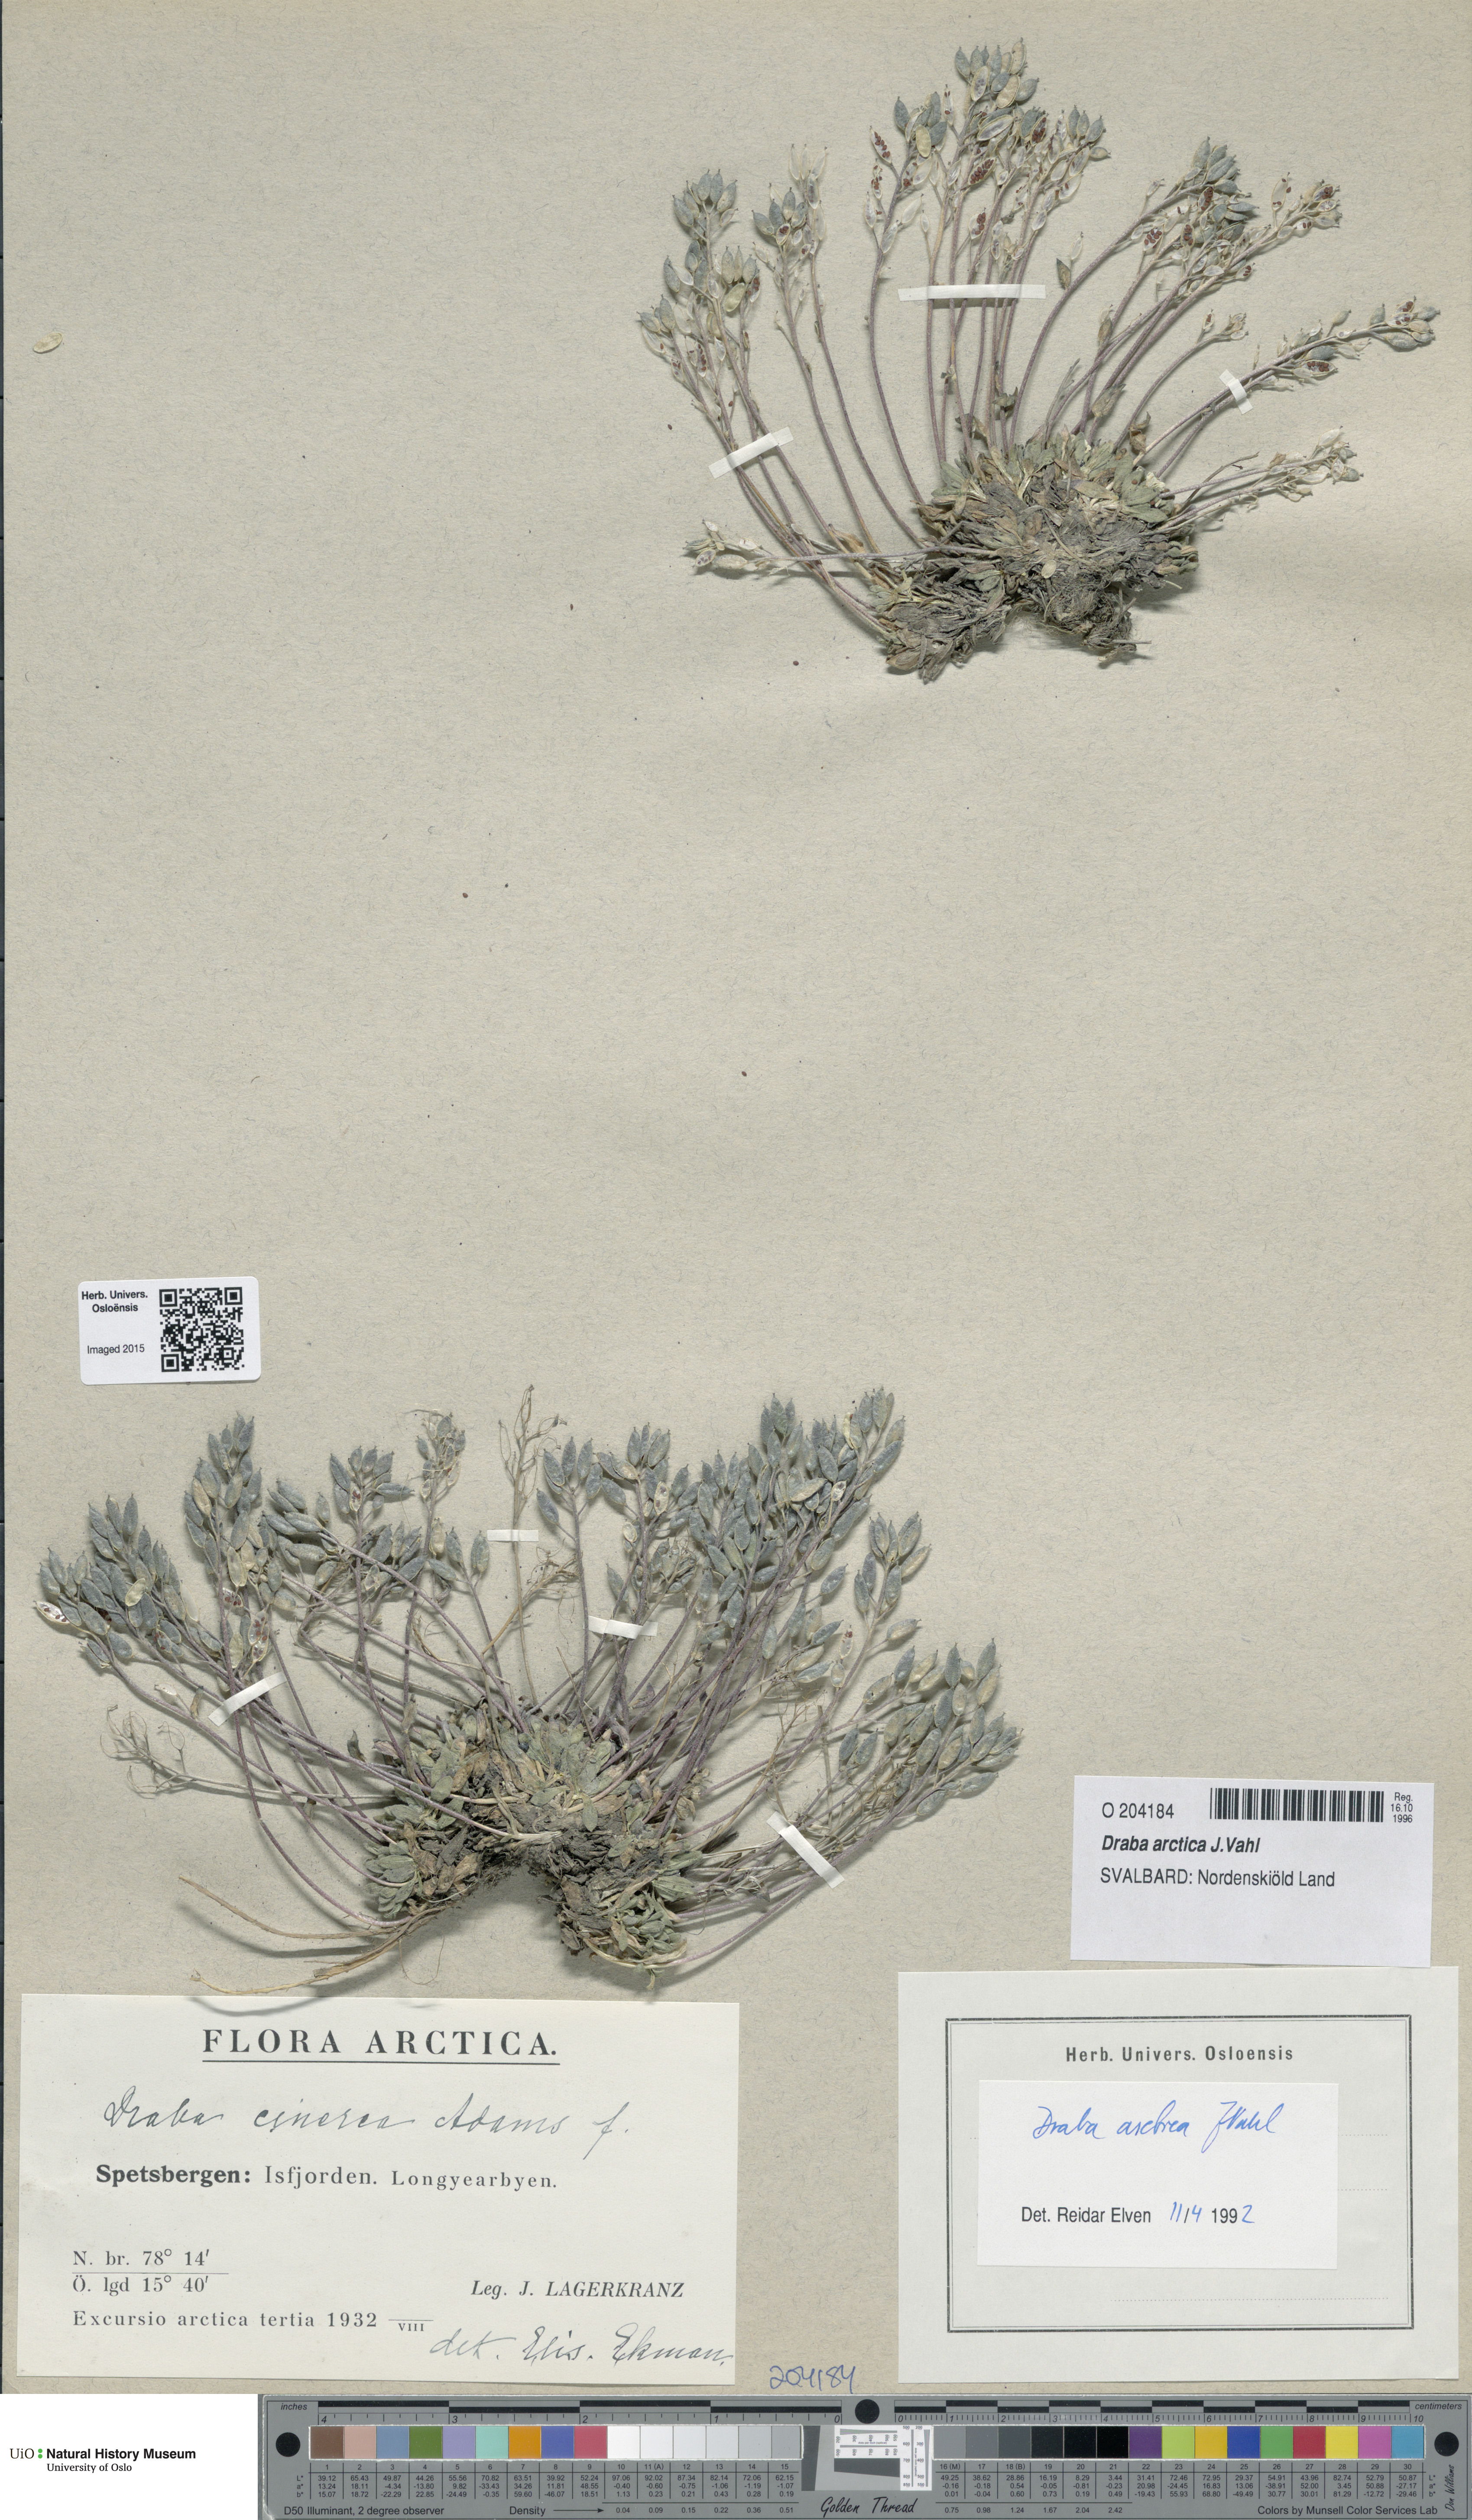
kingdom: Plantae
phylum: Tracheophyta
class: Magnoliopsida
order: Brassicales
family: Brassicaceae
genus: Draba
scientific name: Draba arctica
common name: Arctic draba
